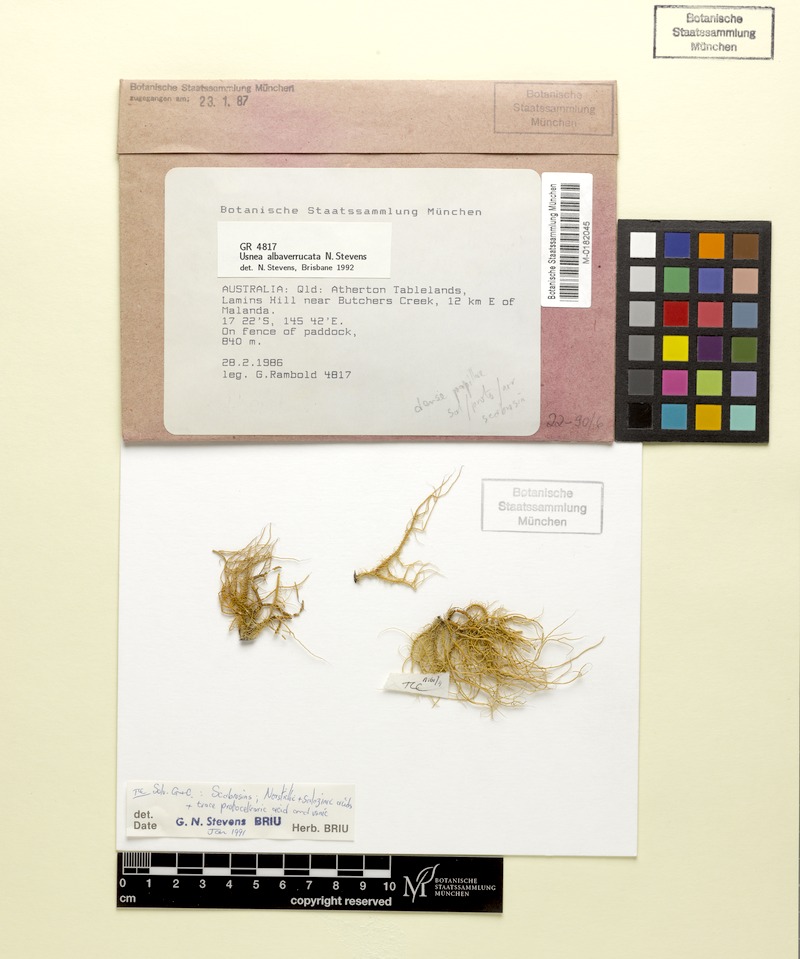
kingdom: Fungi
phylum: Ascomycota
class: Lecanoromycetes
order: Lecanorales
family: Parmeliaceae
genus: Usnea
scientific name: Usnea alboverrucata
